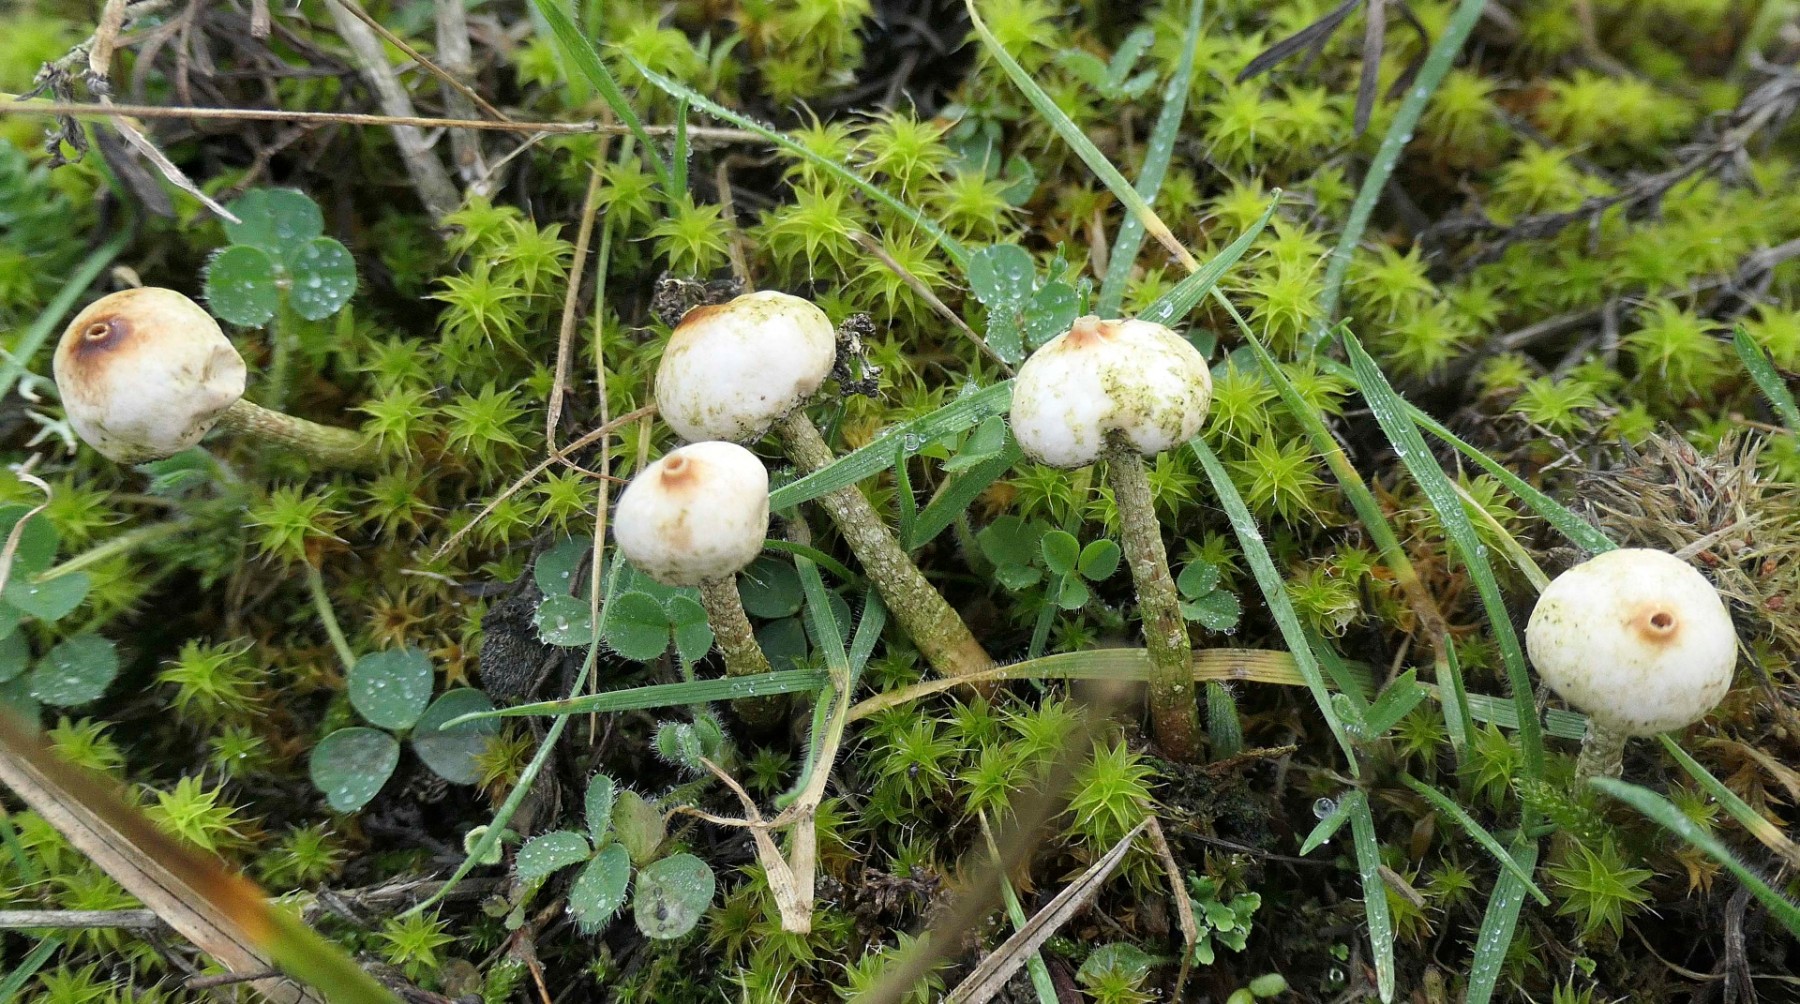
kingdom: Fungi
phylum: Basidiomycota
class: Agaricomycetes
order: Agaricales
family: Agaricaceae
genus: Tulostoma
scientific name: Tulostoma brumale
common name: vinter-stilkbovist
